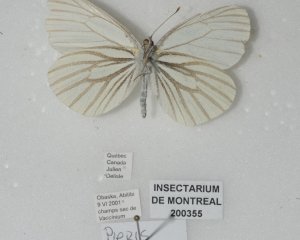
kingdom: Animalia
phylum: Arthropoda
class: Insecta
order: Lepidoptera
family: Pieridae
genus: Pieris
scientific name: Pieris oleracea
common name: Mustard White
